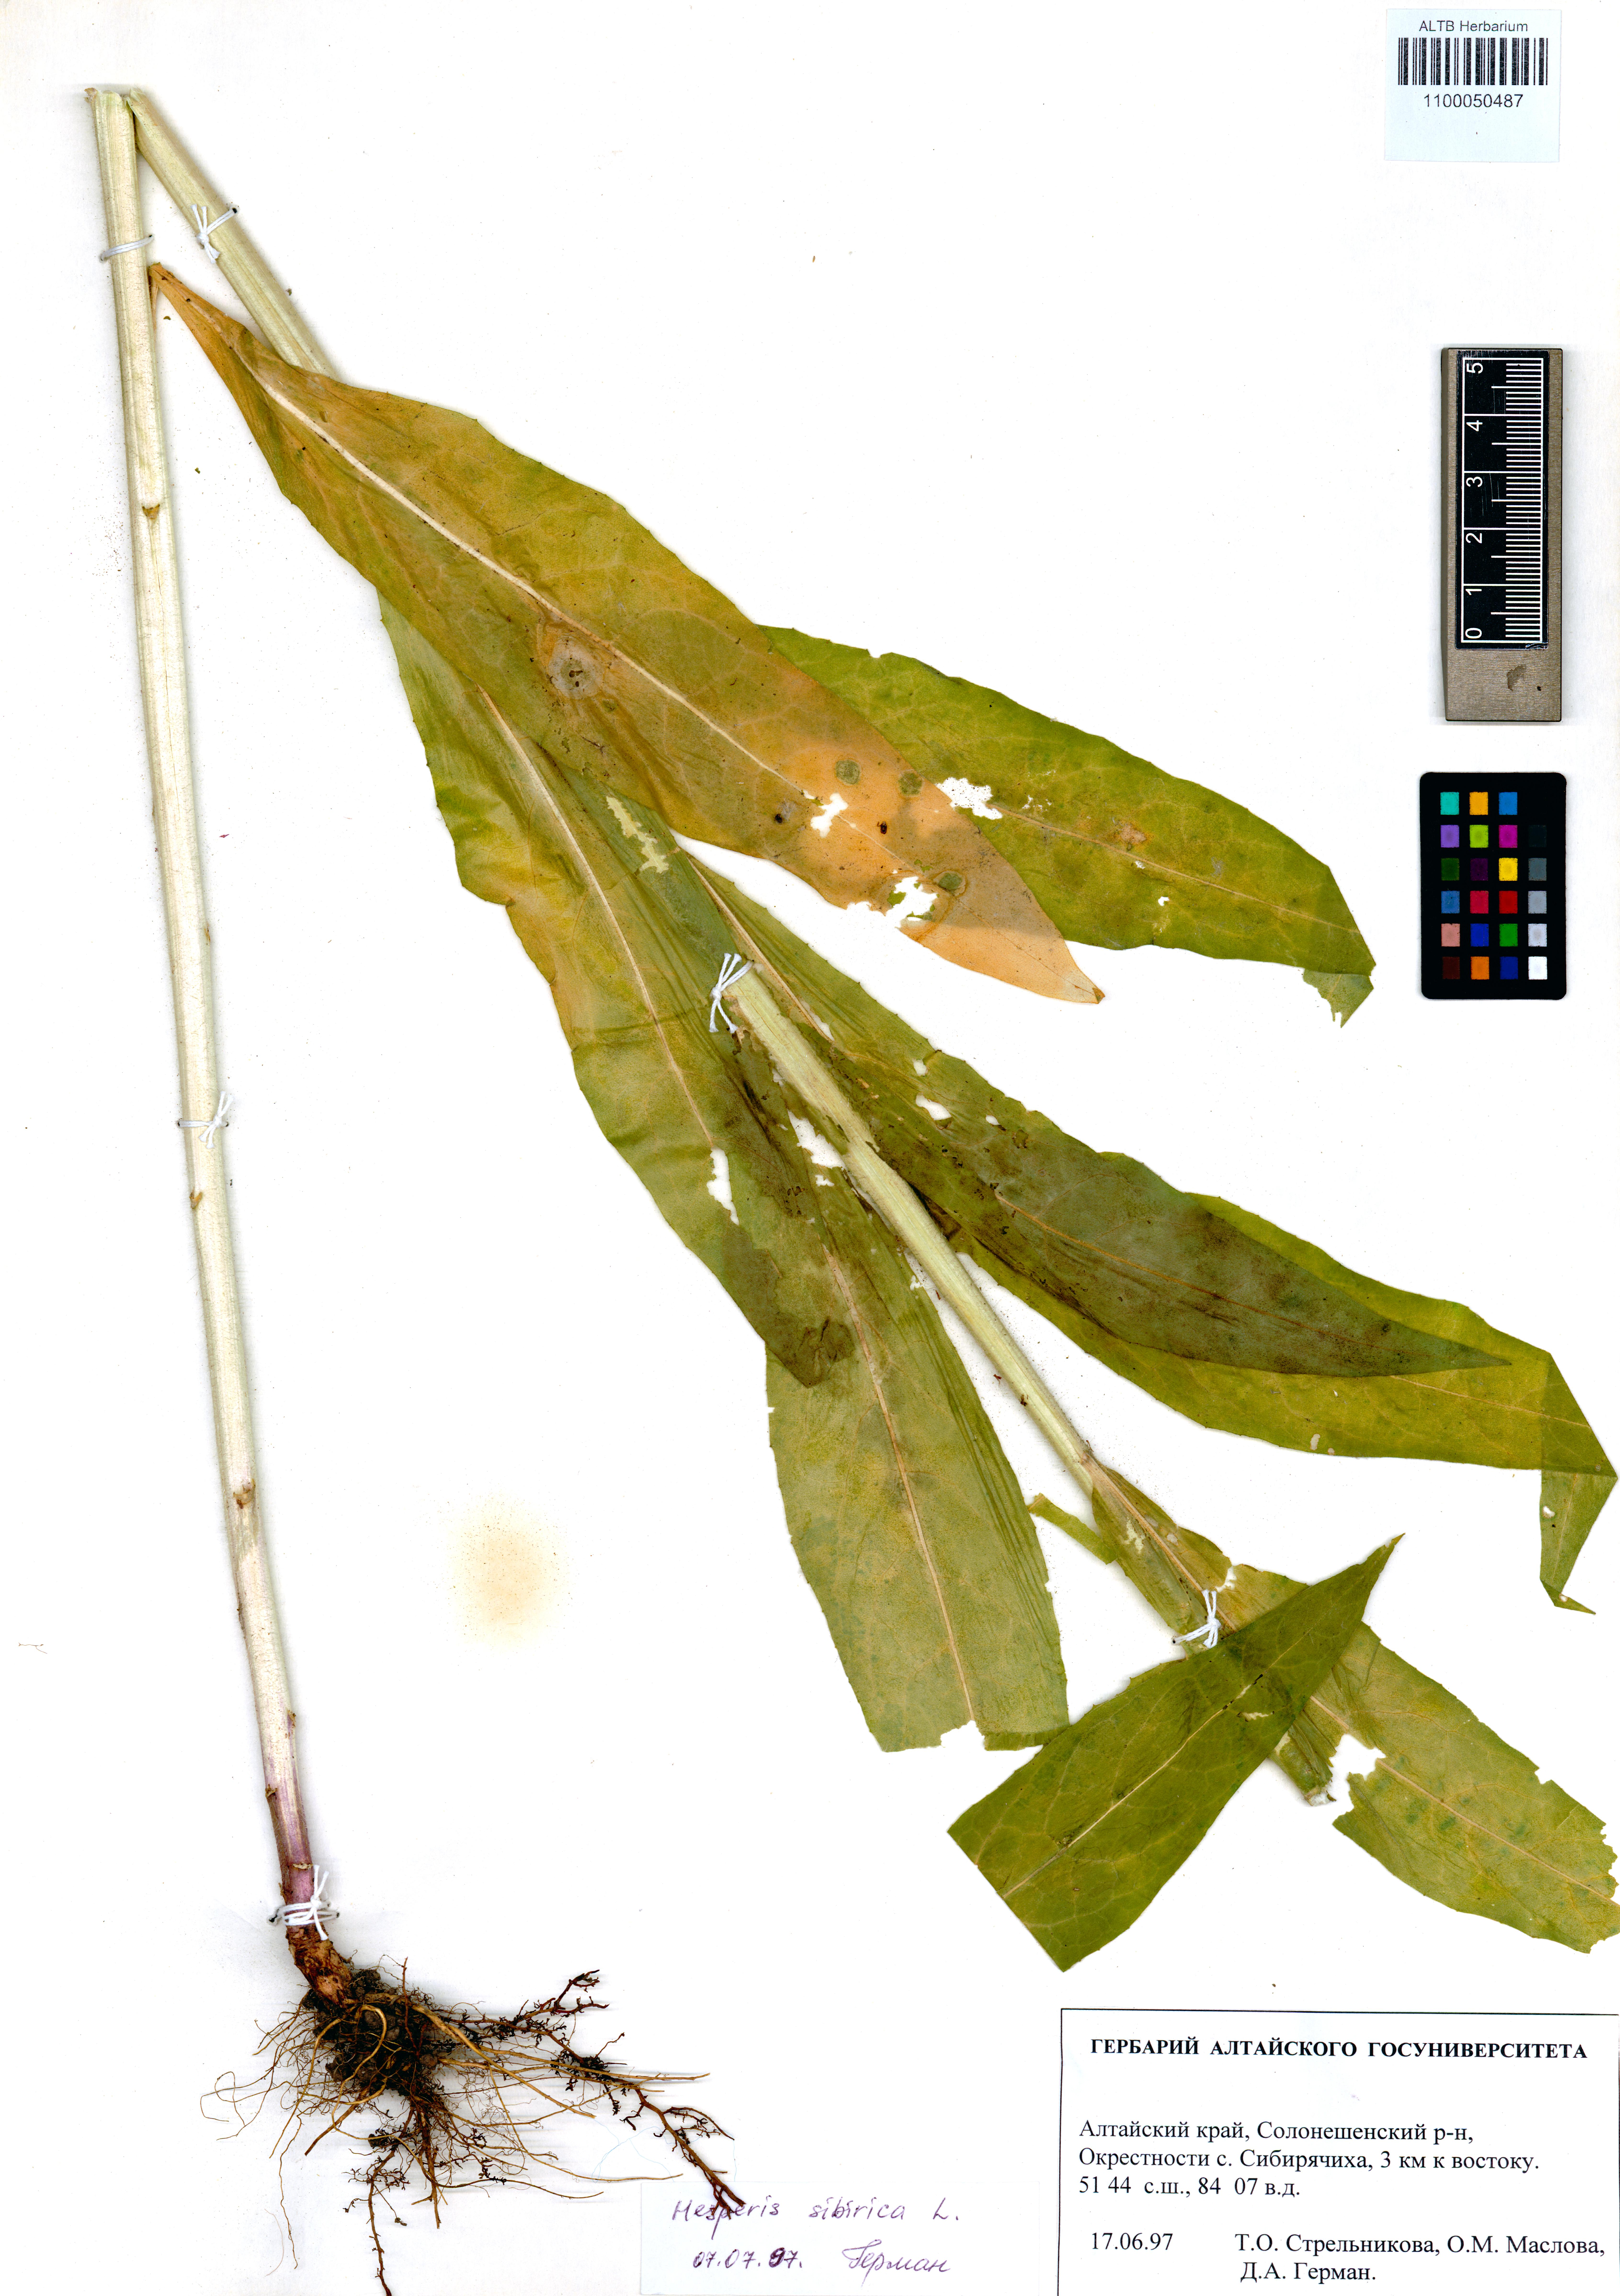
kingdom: Plantae
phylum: Tracheophyta
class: Magnoliopsida
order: Brassicales
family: Brassicaceae
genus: Hesperis
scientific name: Hesperis sibirica
